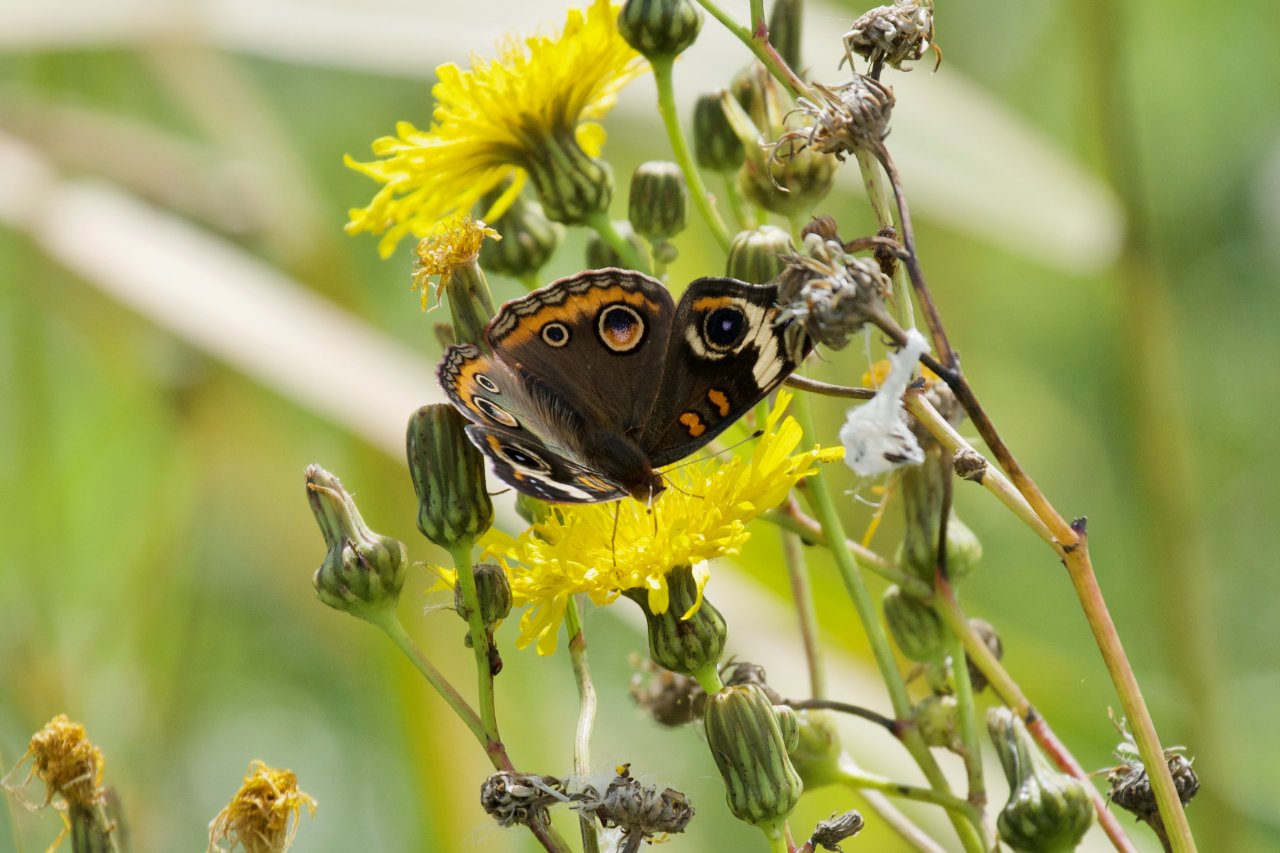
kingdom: Animalia
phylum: Arthropoda
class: Insecta
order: Lepidoptera
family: Nymphalidae
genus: Junonia
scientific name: Junonia coenia
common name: Common Buckeye
